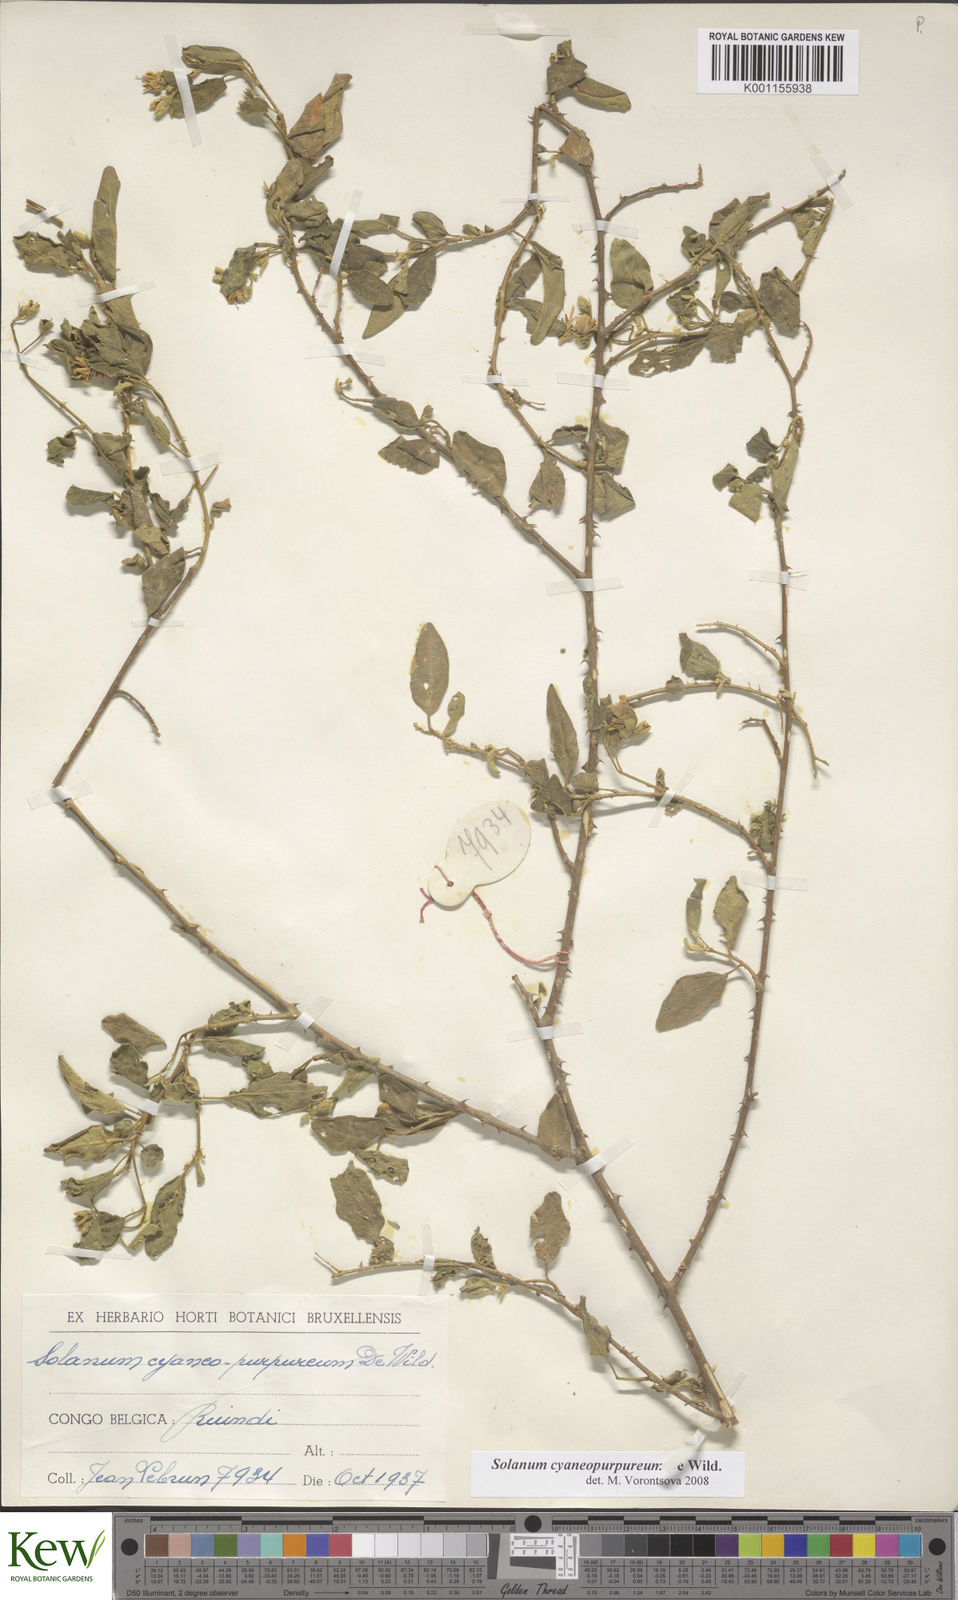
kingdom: Plantae
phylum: Tracheophyta
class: Magnoliopsida
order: Solanales
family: Solanaceae
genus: Solanum
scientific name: Solanum cyaneopurpureum
